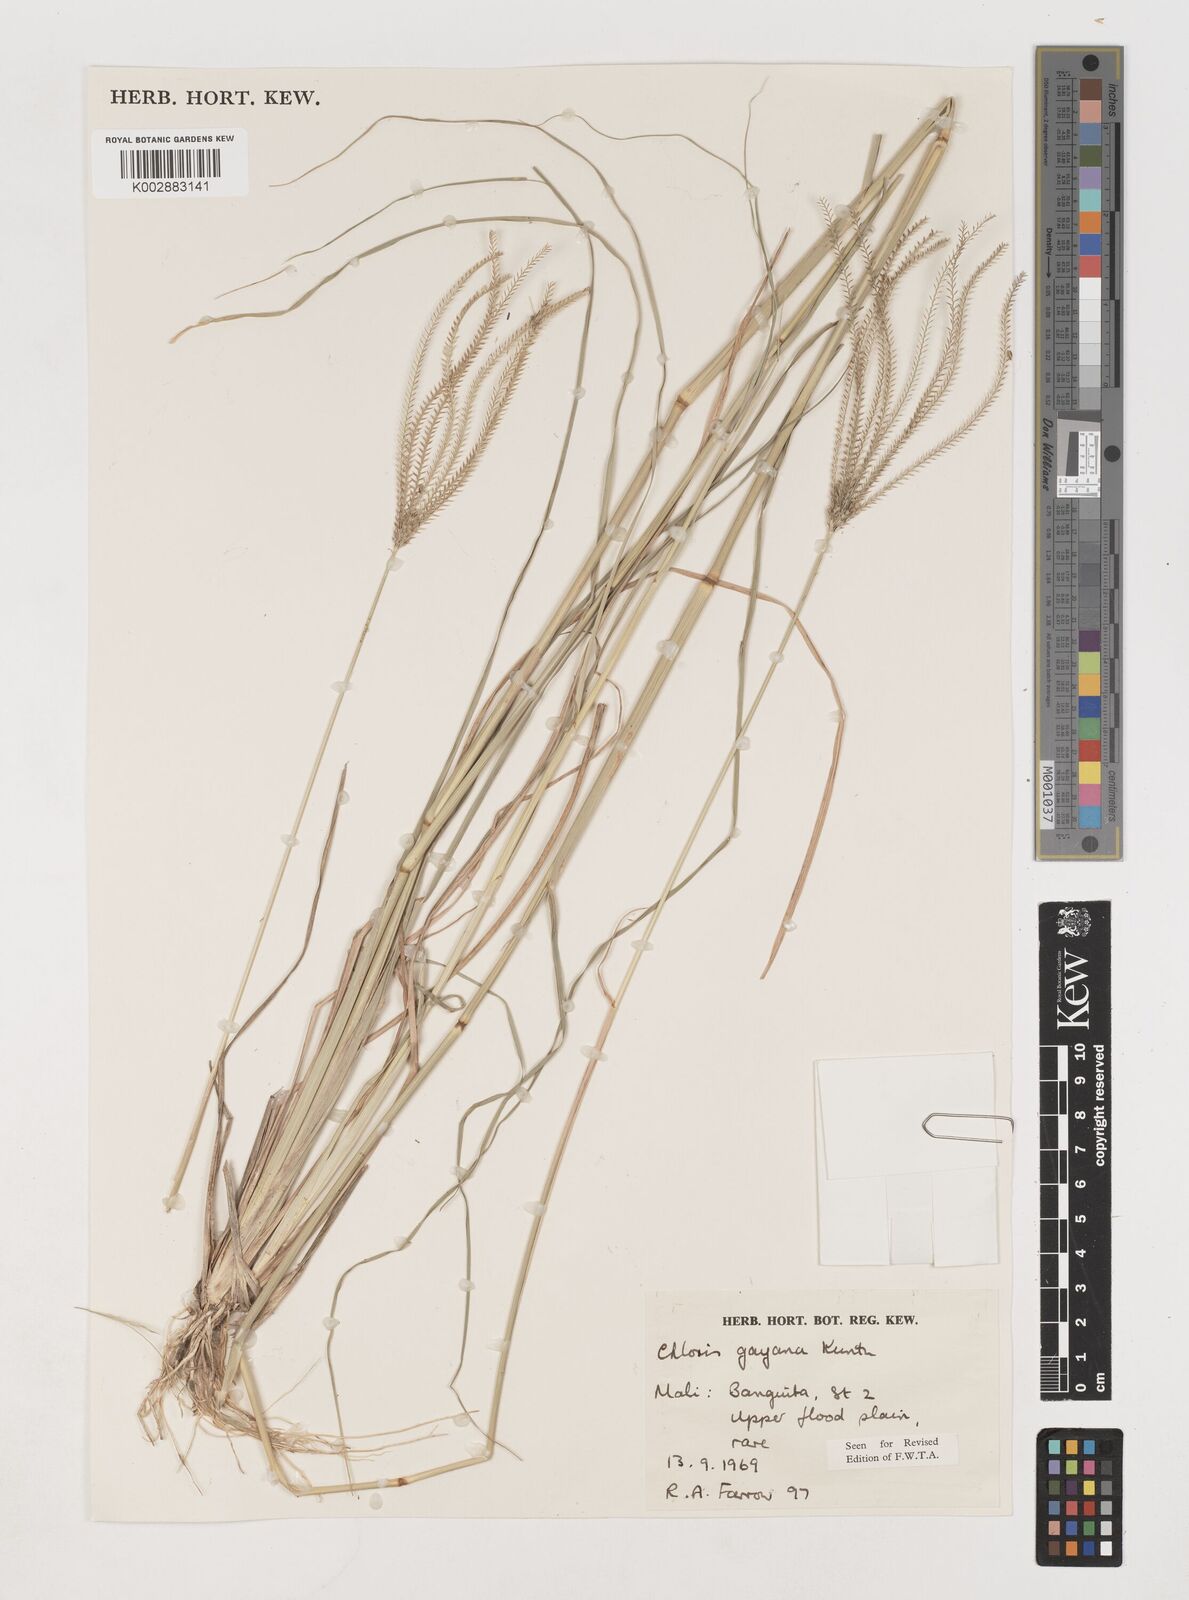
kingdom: Plantae
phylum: Tracheophyta
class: Liliopsida
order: Poales
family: Poaceae
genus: Chloris
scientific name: Chloris gayana
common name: Rhodes grass
